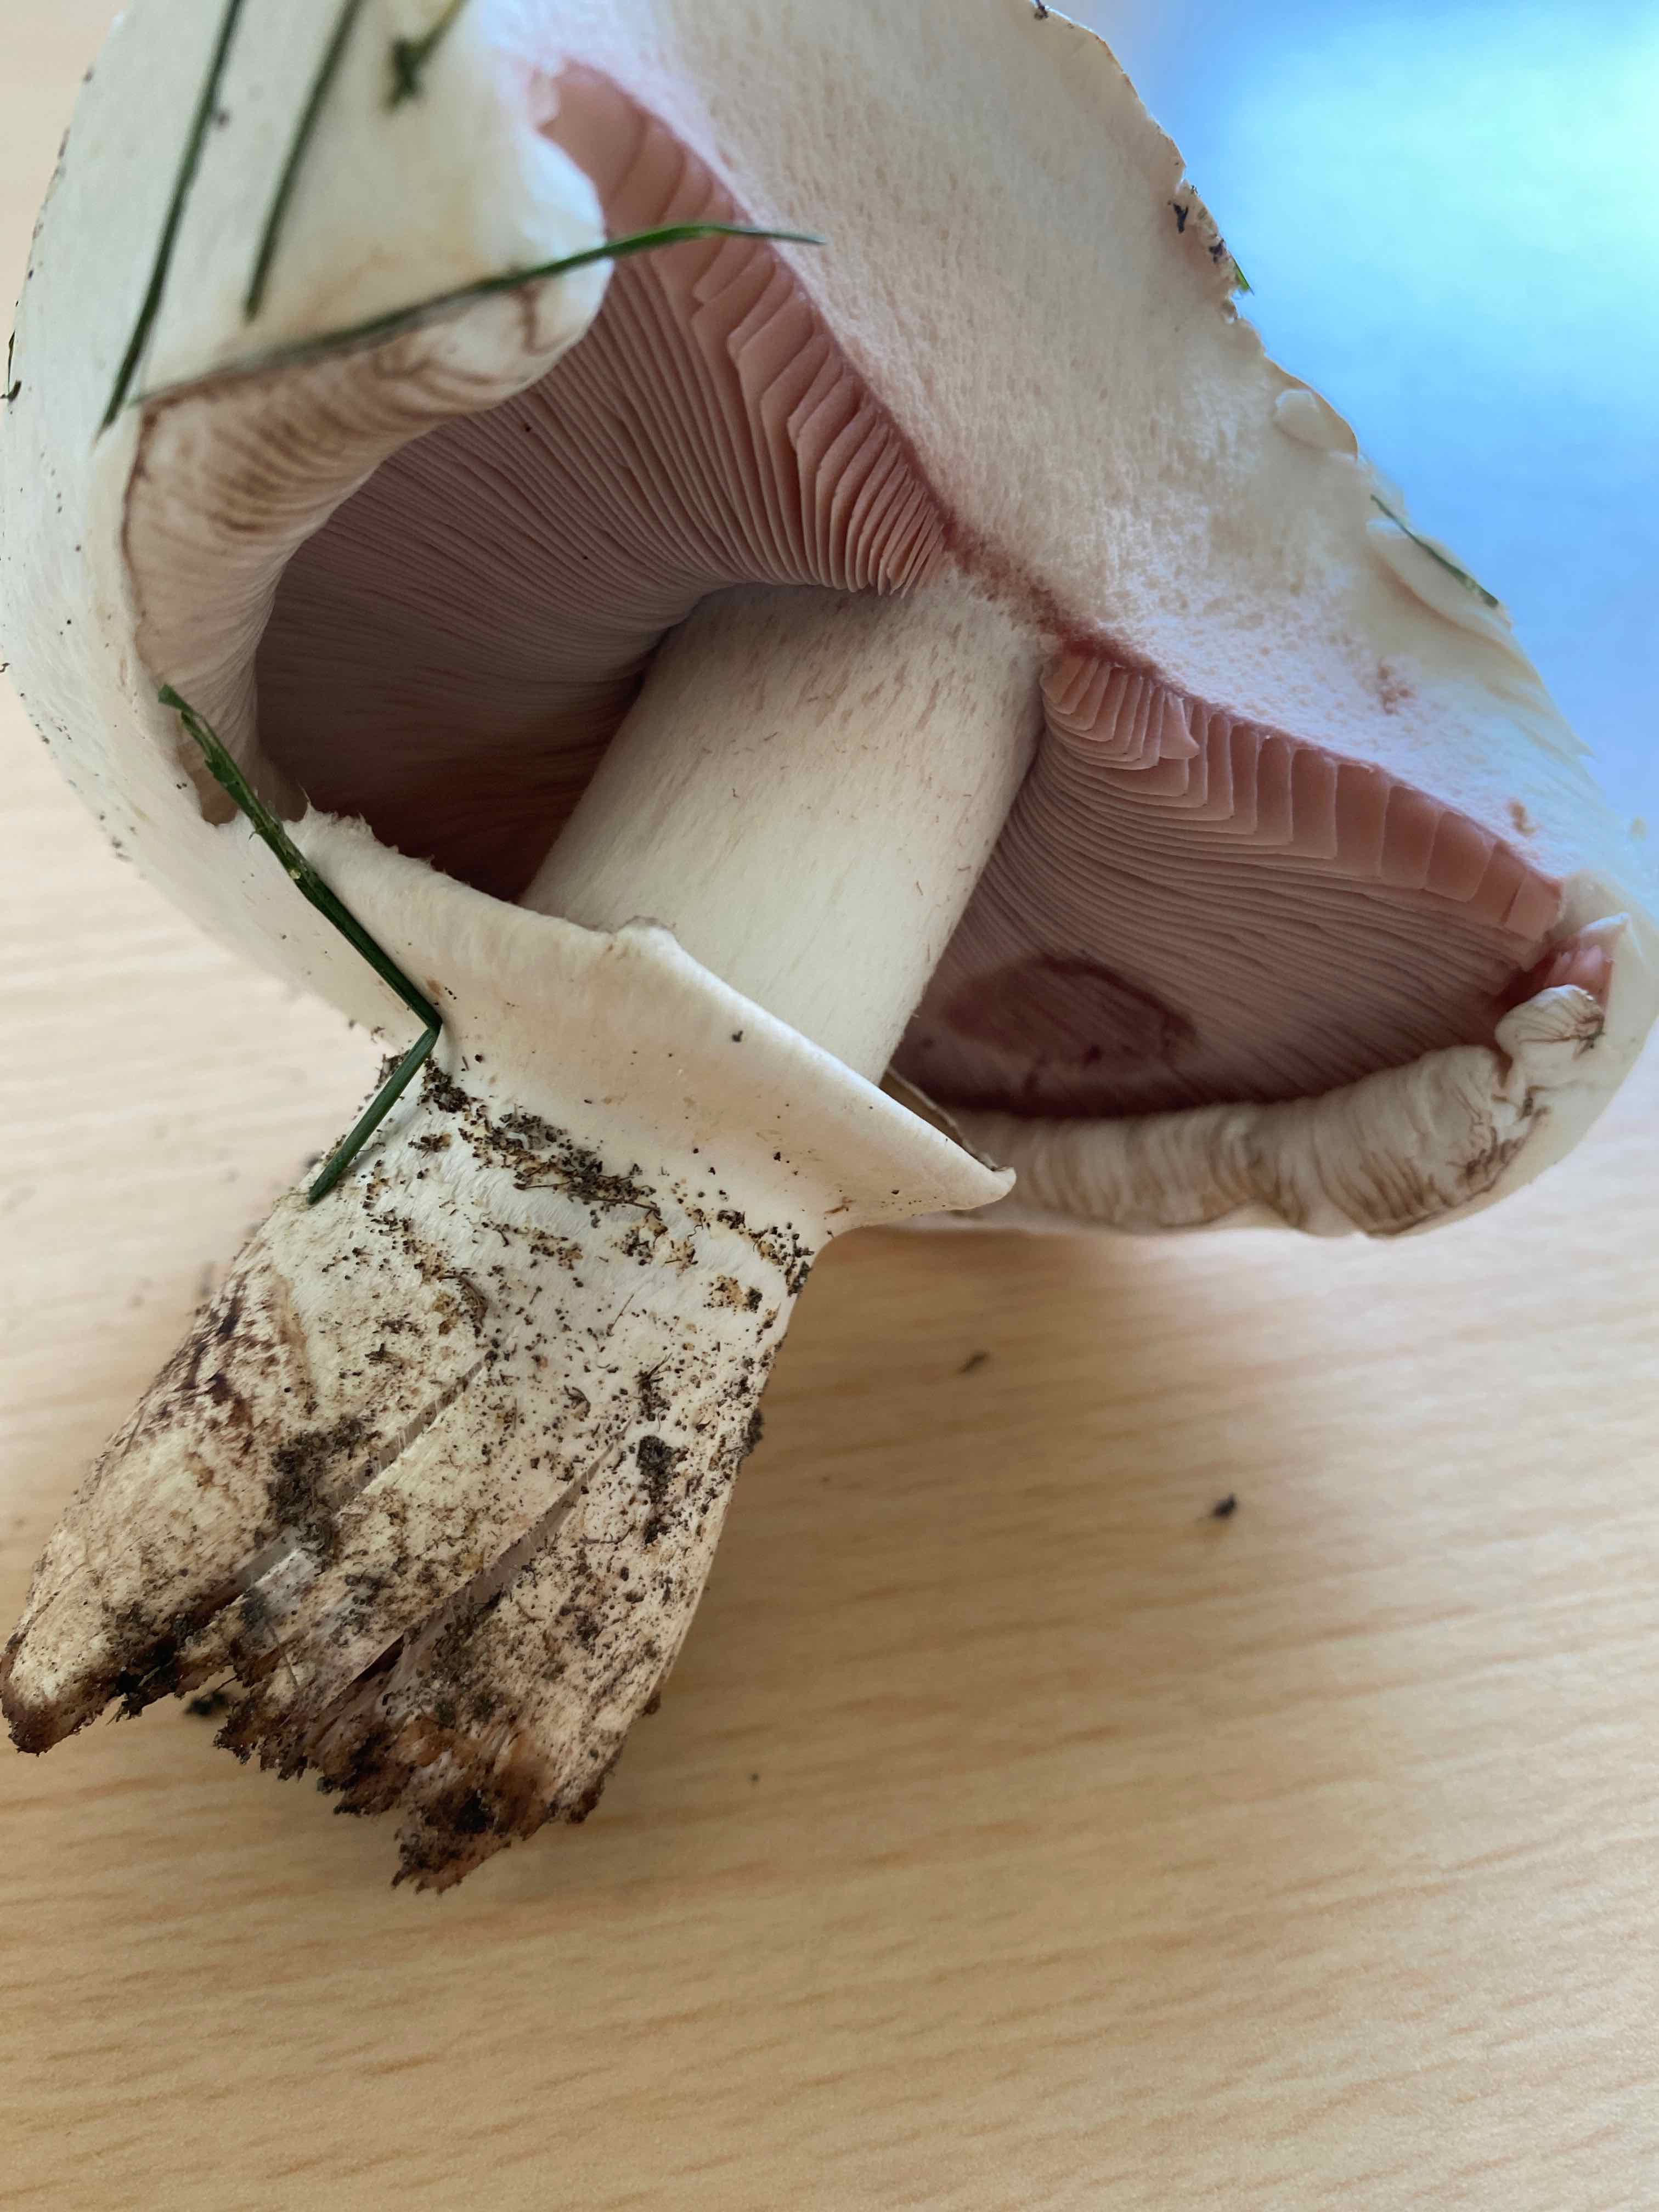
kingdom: Fungi
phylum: Basidiomycota
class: Agaricomycetes
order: Agaricales
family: Agaricaceae
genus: Agaricus
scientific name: Agaricus
